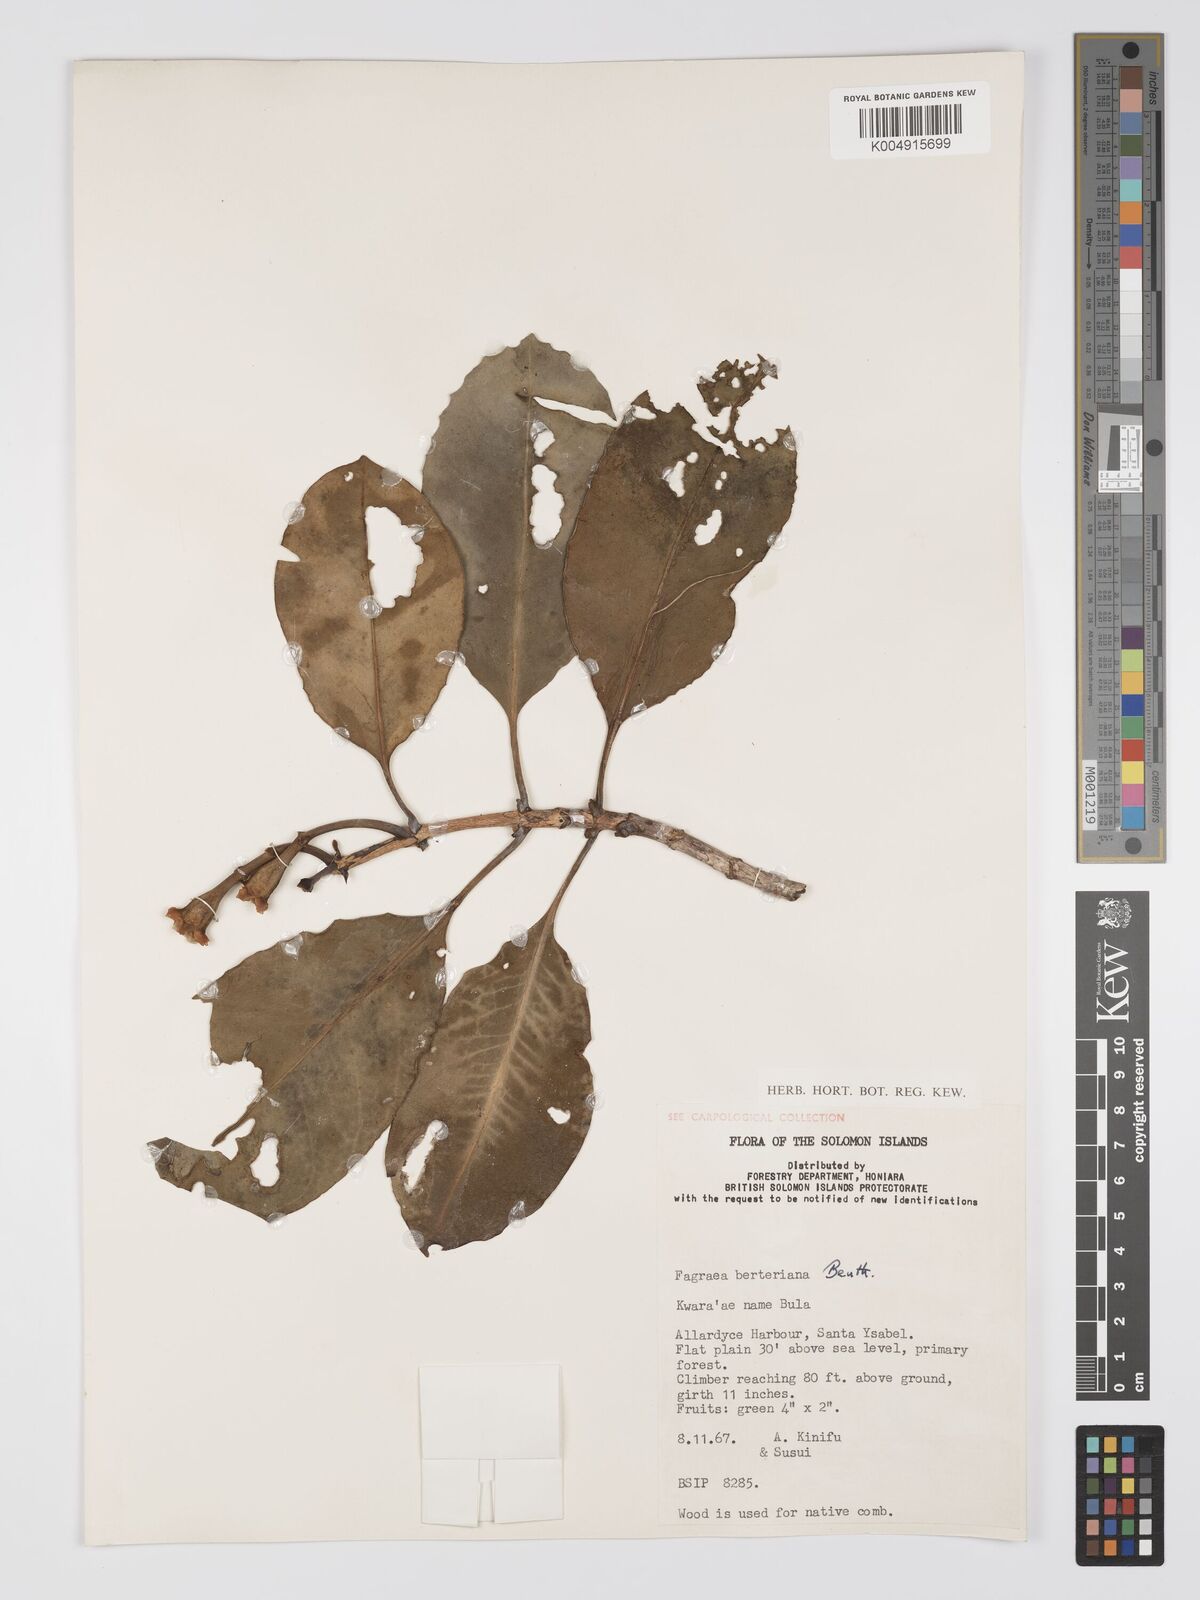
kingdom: Plantae
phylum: Tracheophyta
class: Magnoliopsida
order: Gentianales
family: Gentianaceae
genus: Fagraea
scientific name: Fagraea berteroana
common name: Cape jitta
